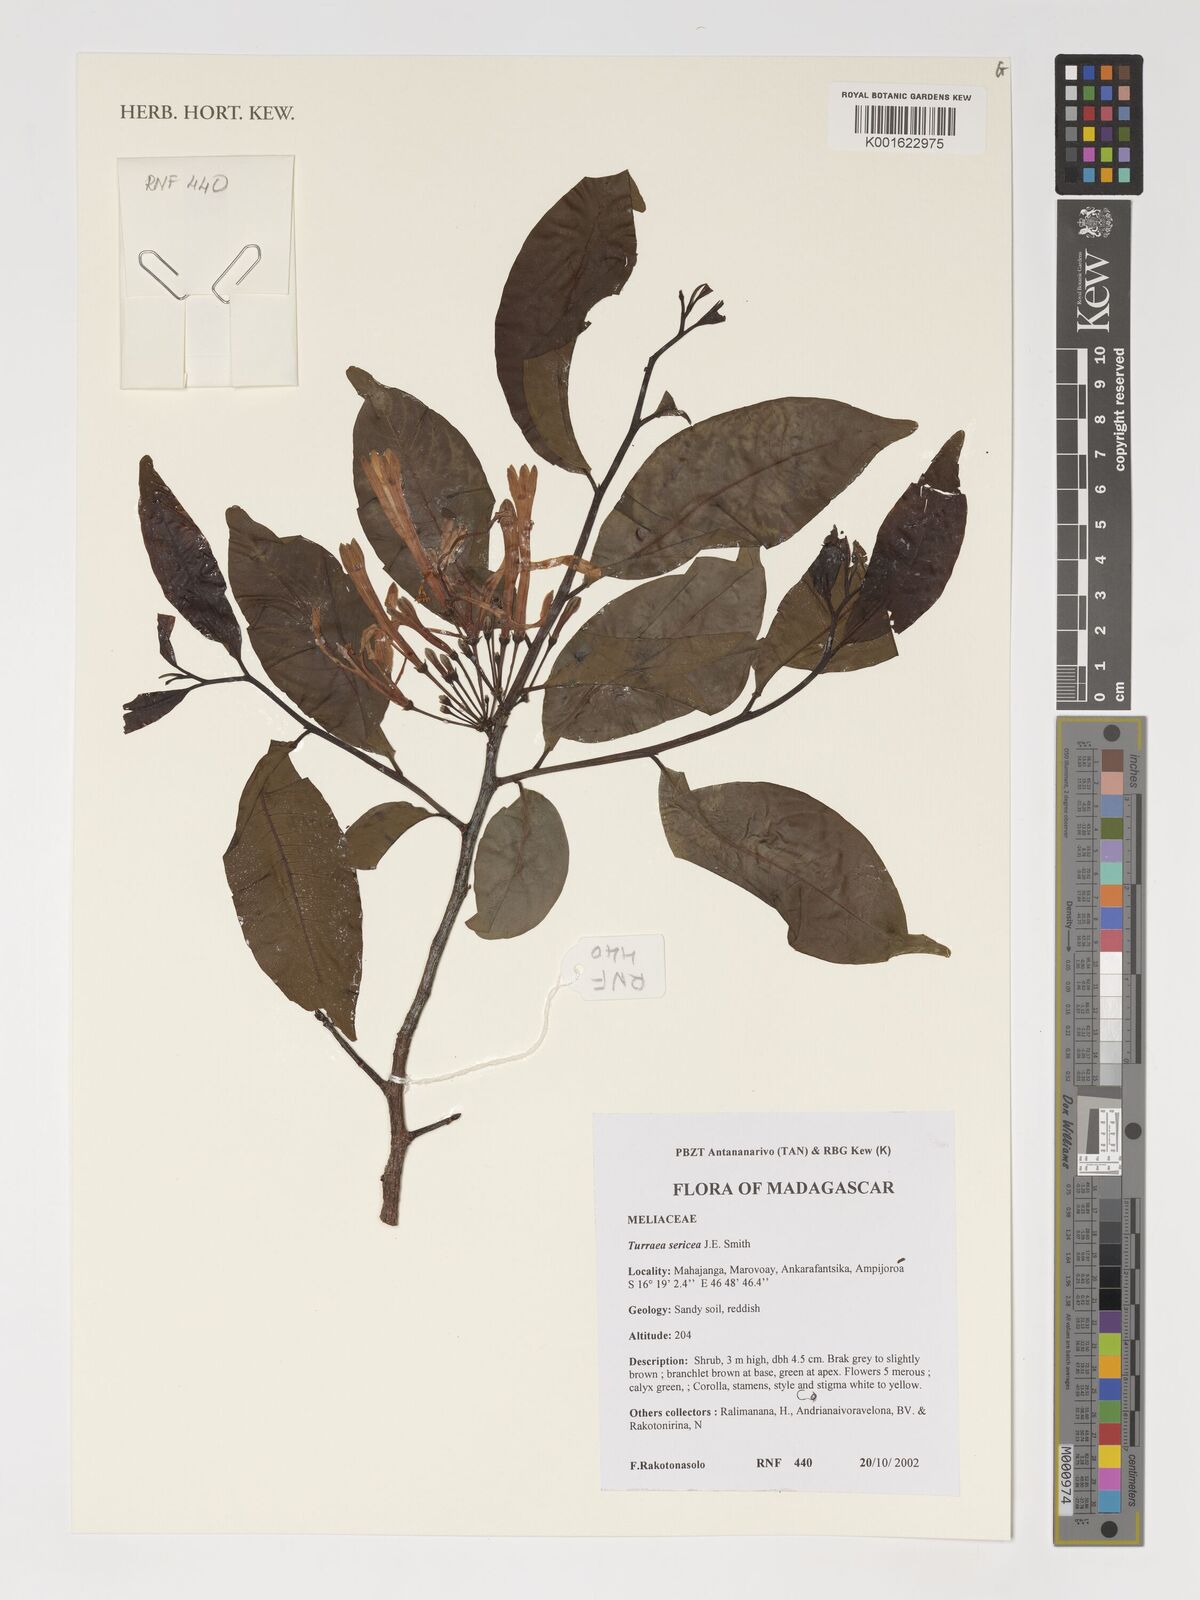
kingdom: Plantae
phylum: Tracheophyta
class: Magnoliopsida
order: Sapindales
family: Meliaceae
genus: Turraea
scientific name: Turraea sericea
